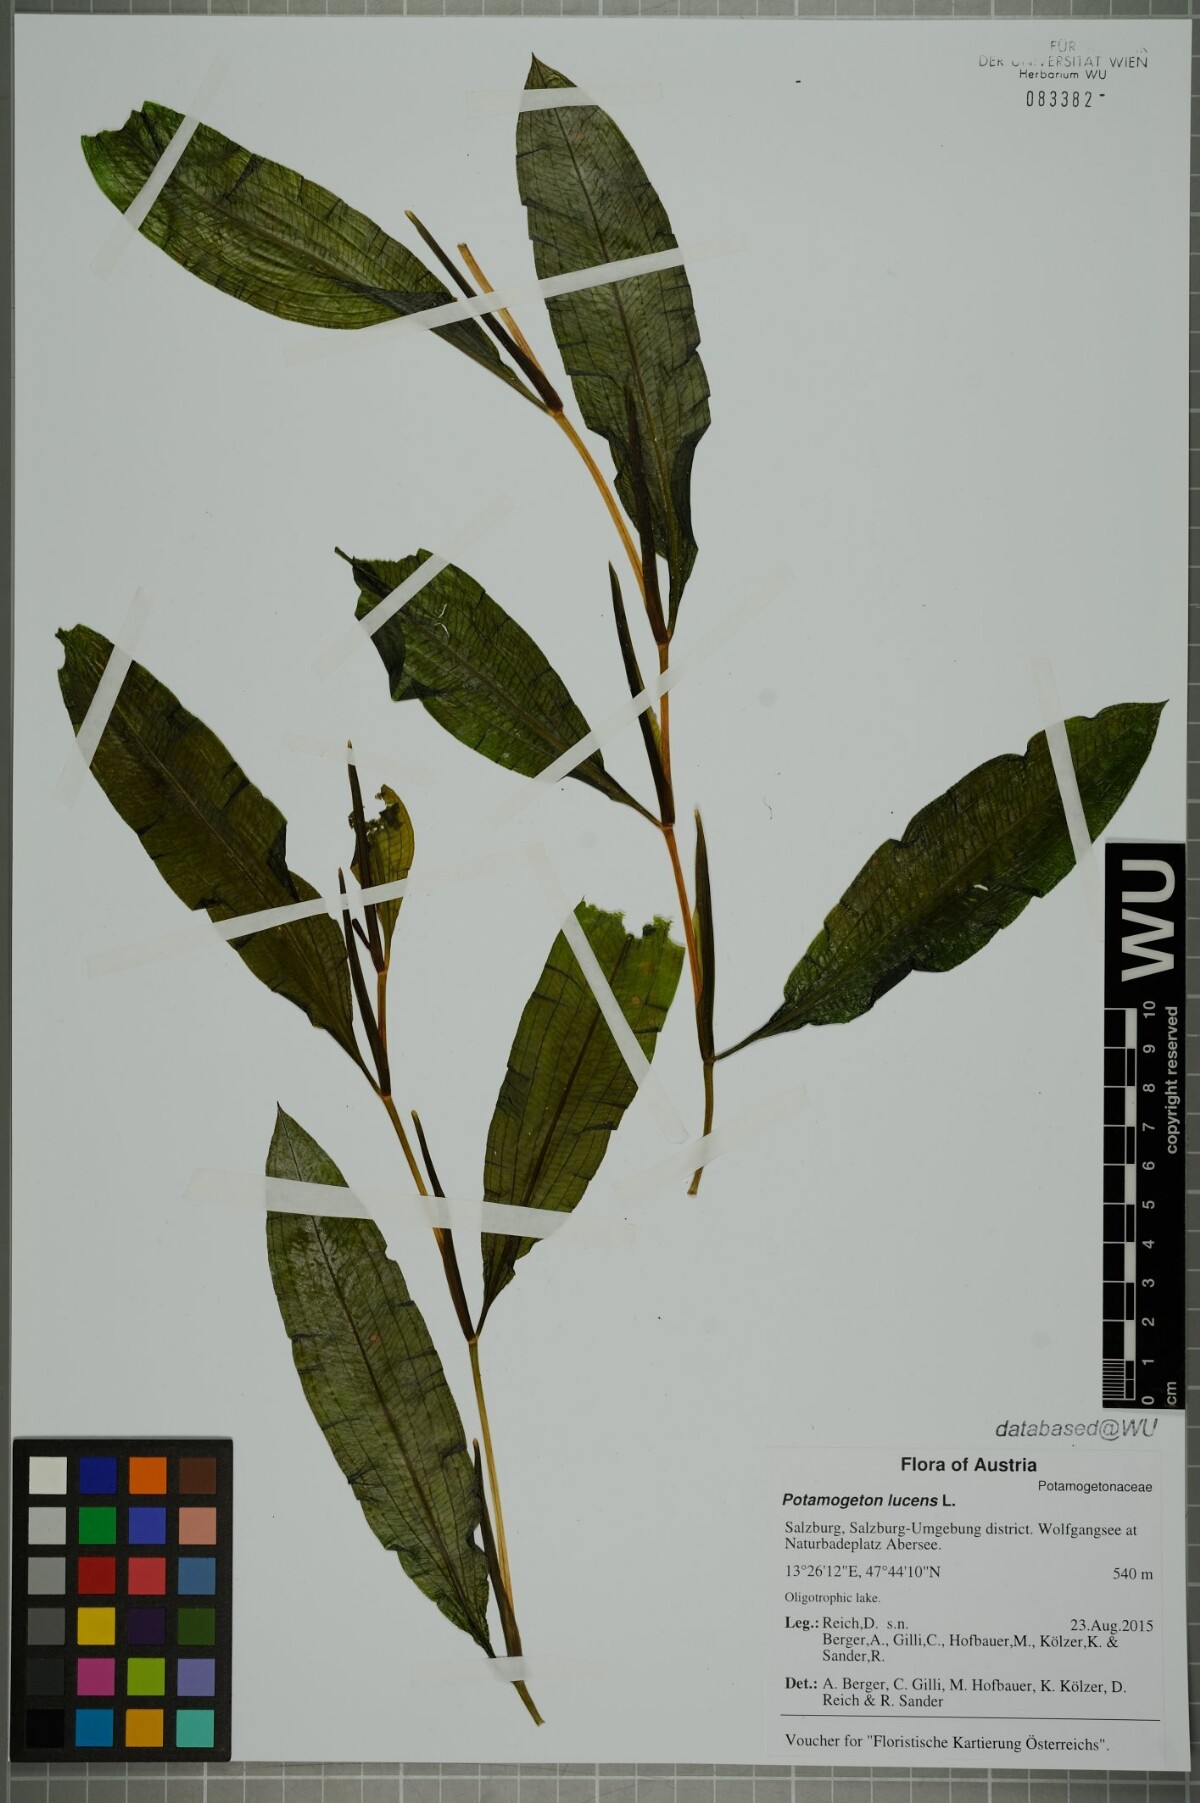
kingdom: Plantae
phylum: Tracheophyta
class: Liliopsida
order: Alismatales
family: Potamogetonaceae
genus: Potamogeton
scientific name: Potamogeton lucens
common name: Shining pondweed
